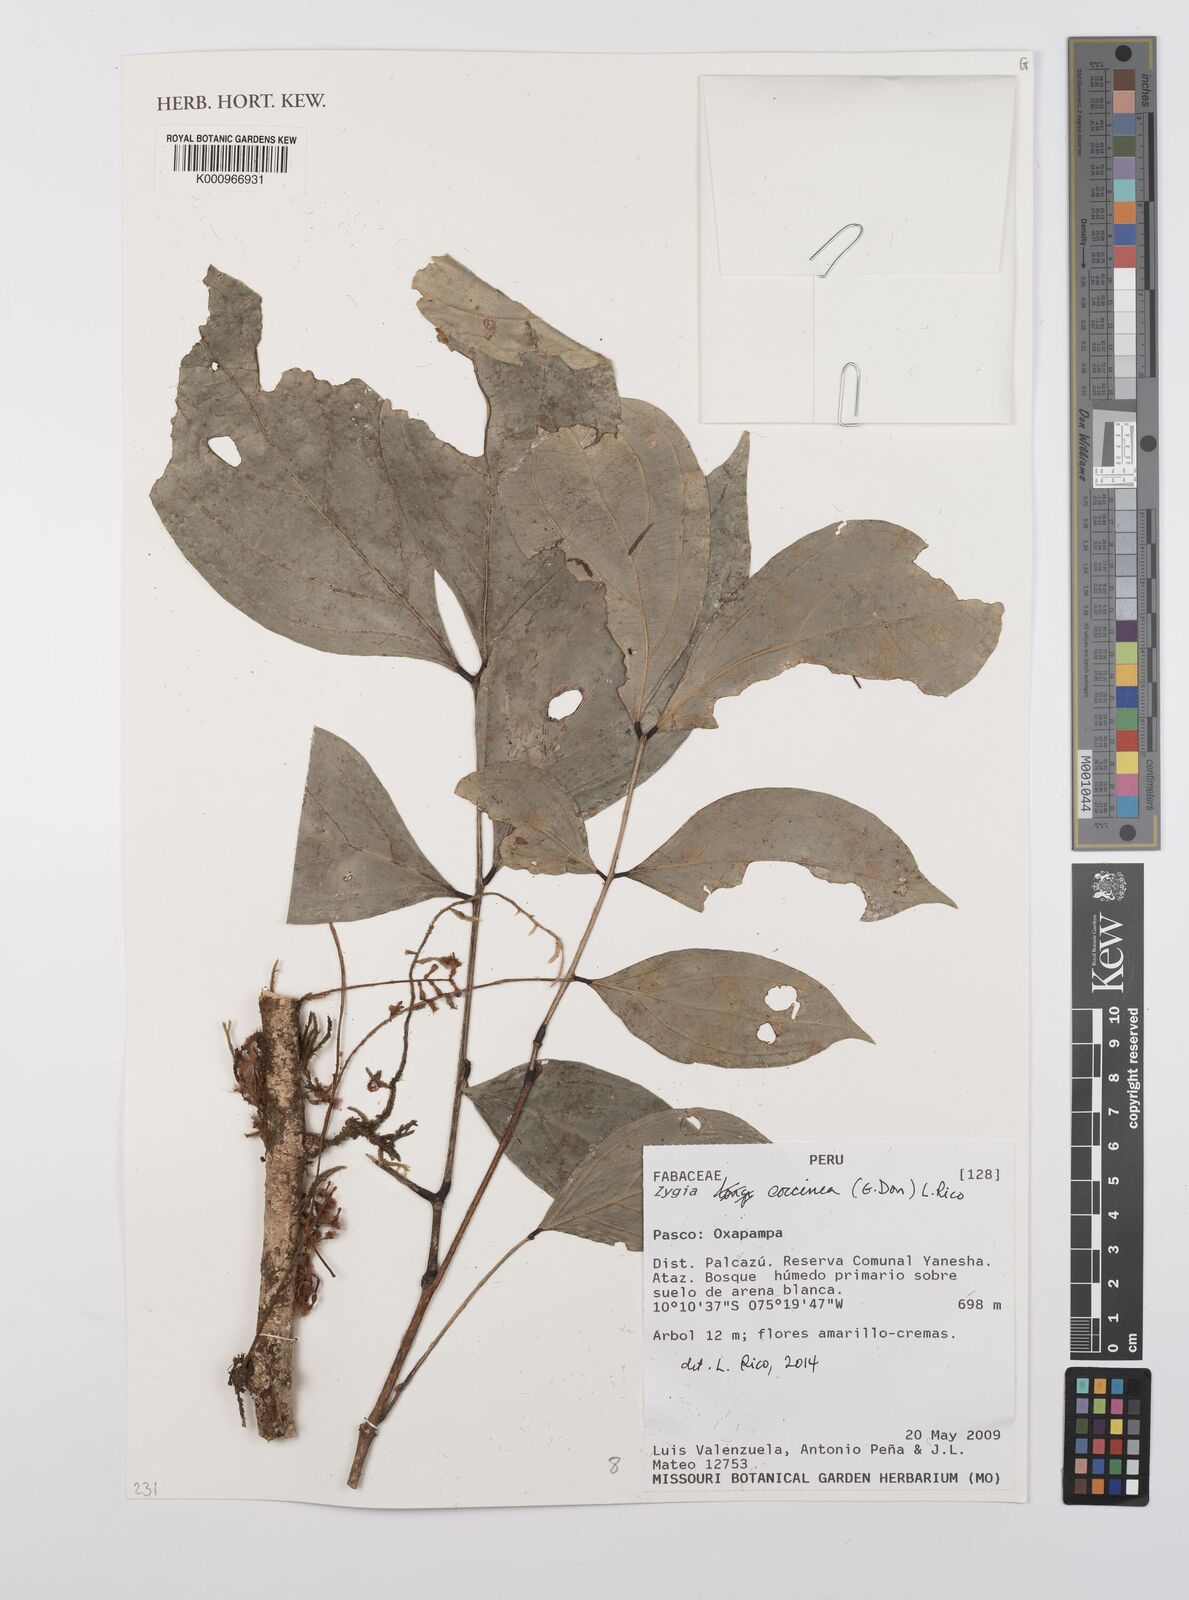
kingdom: Plantae
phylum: Tracheophyta
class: Magnoliopsida
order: Fabales
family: Fabaceae
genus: Zygia
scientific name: Zygia coccinea
